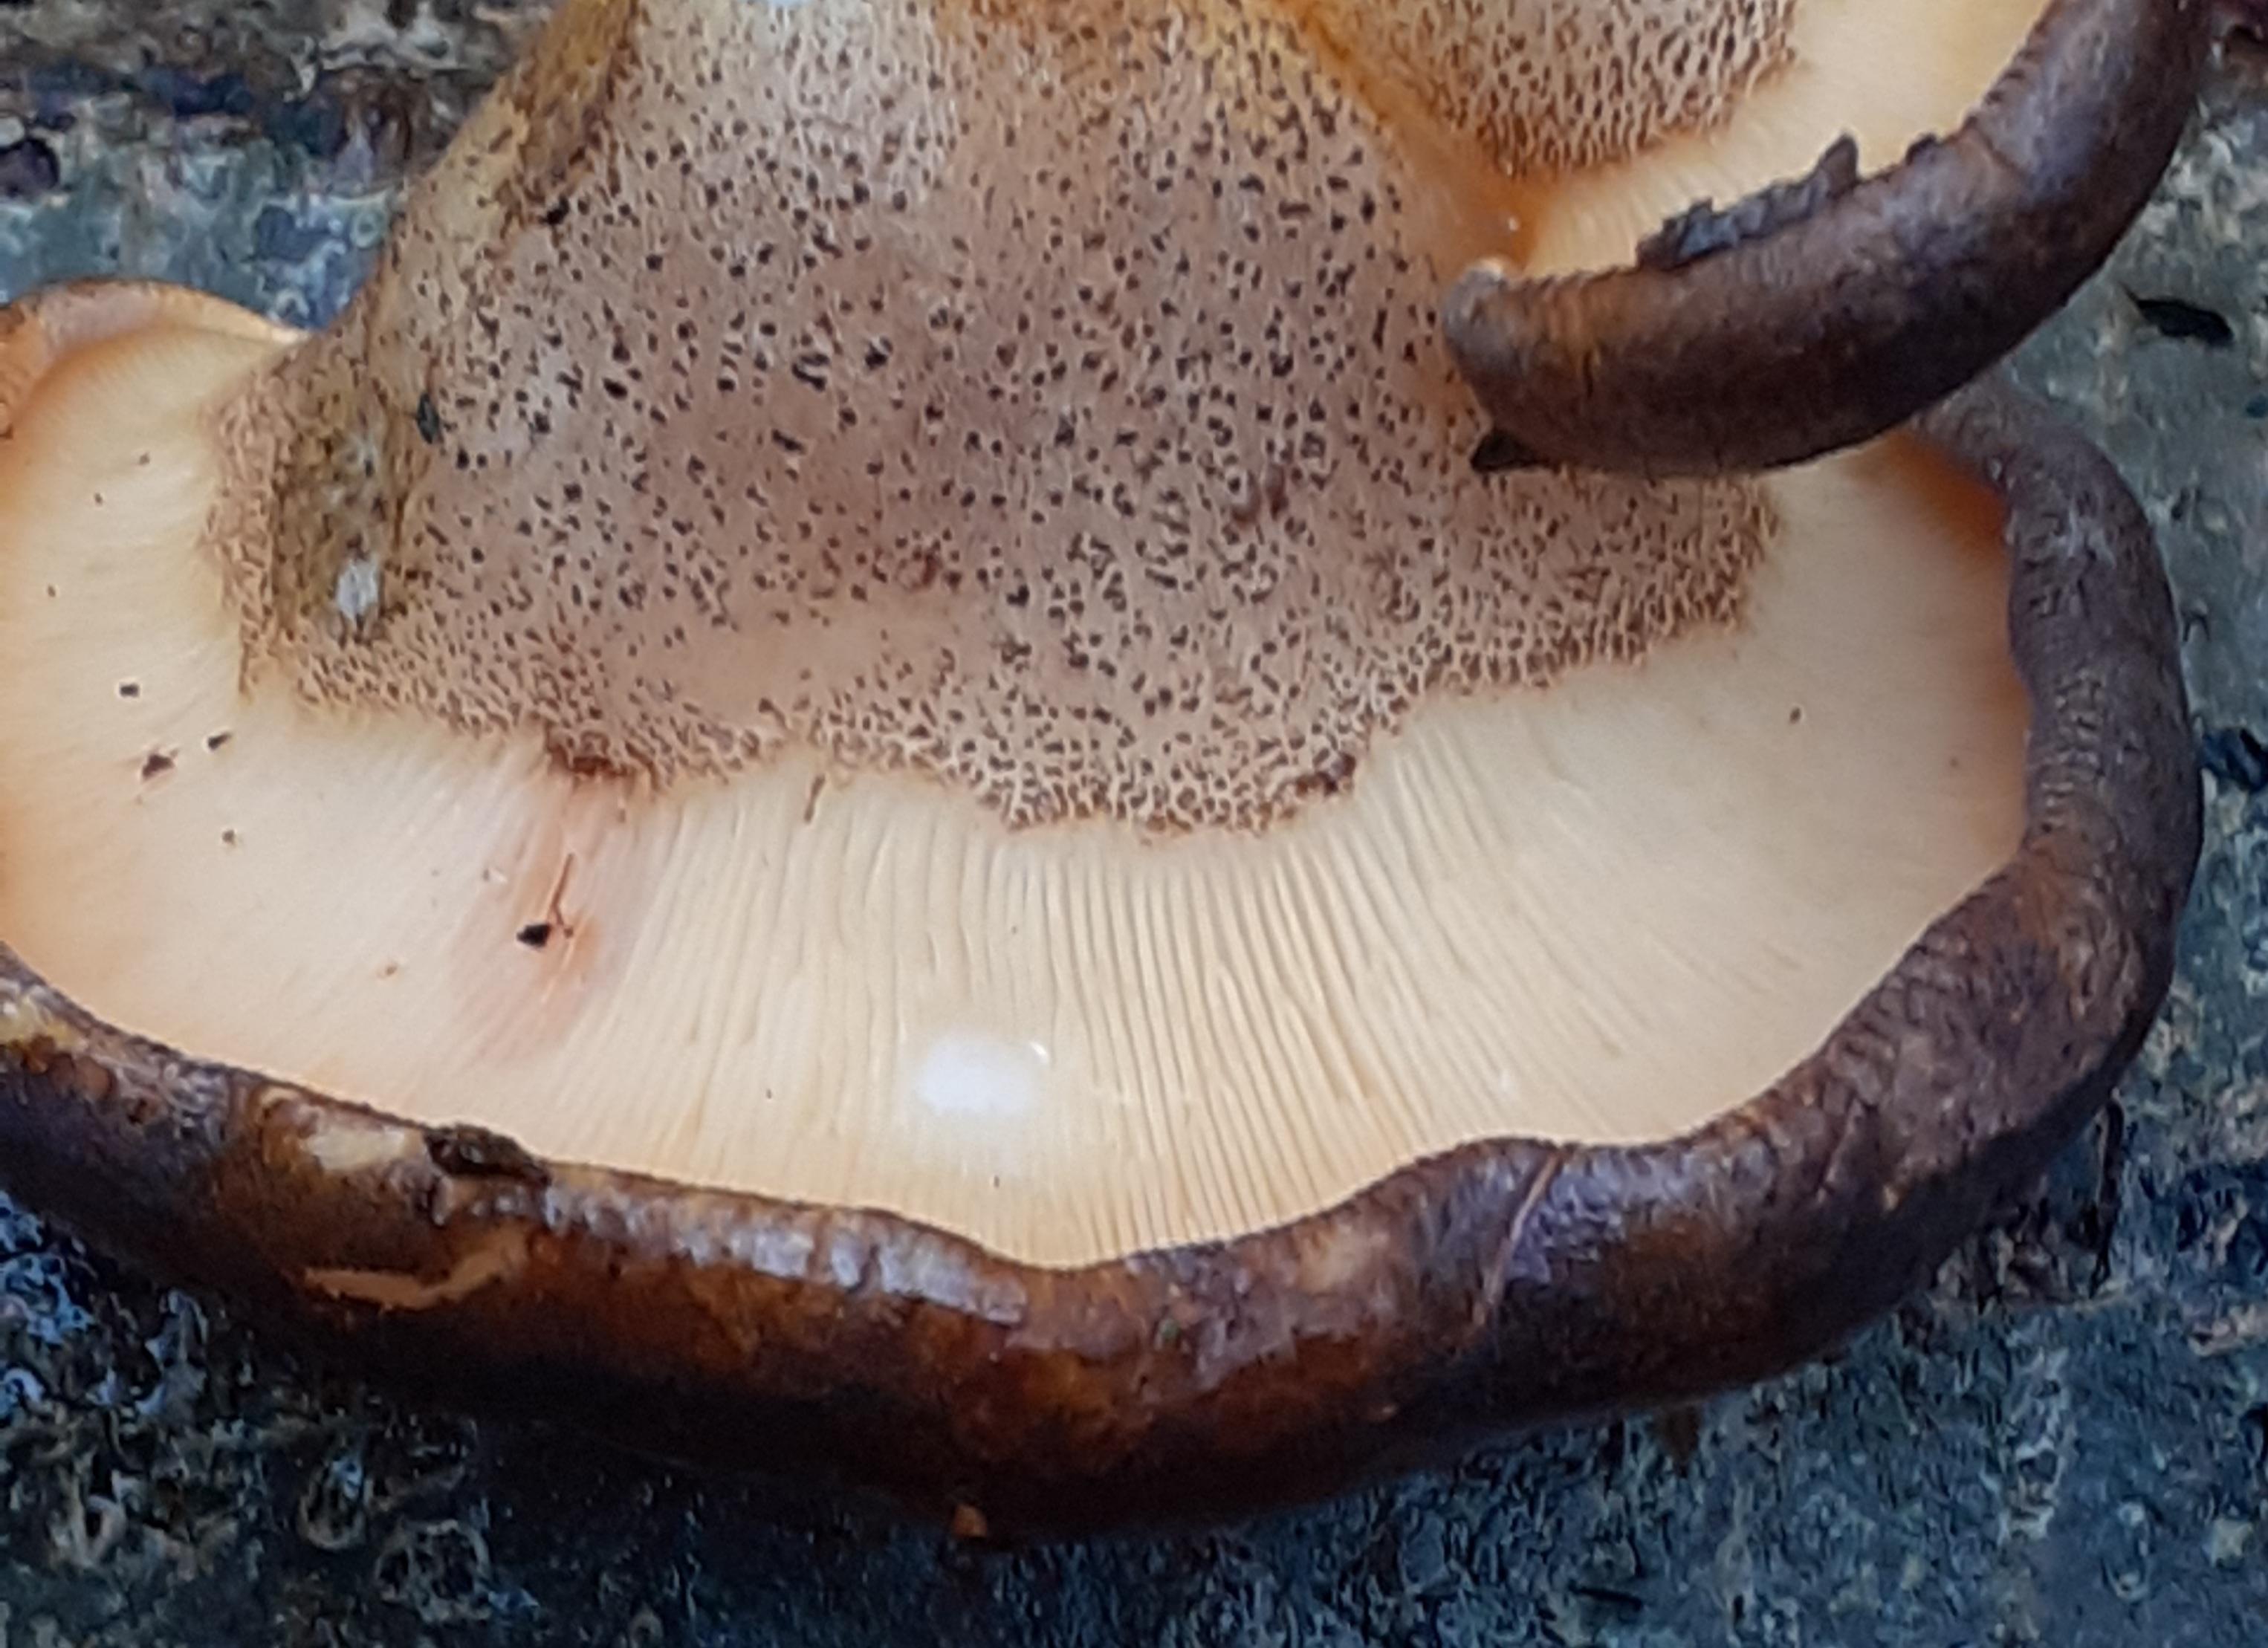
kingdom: Fungi
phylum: Basidiomycota
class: Agaricomycetes
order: Agaricales
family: Sarcomyxaceae
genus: Sarcomyxa
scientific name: Sarcomyxa serotina
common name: gummihat
